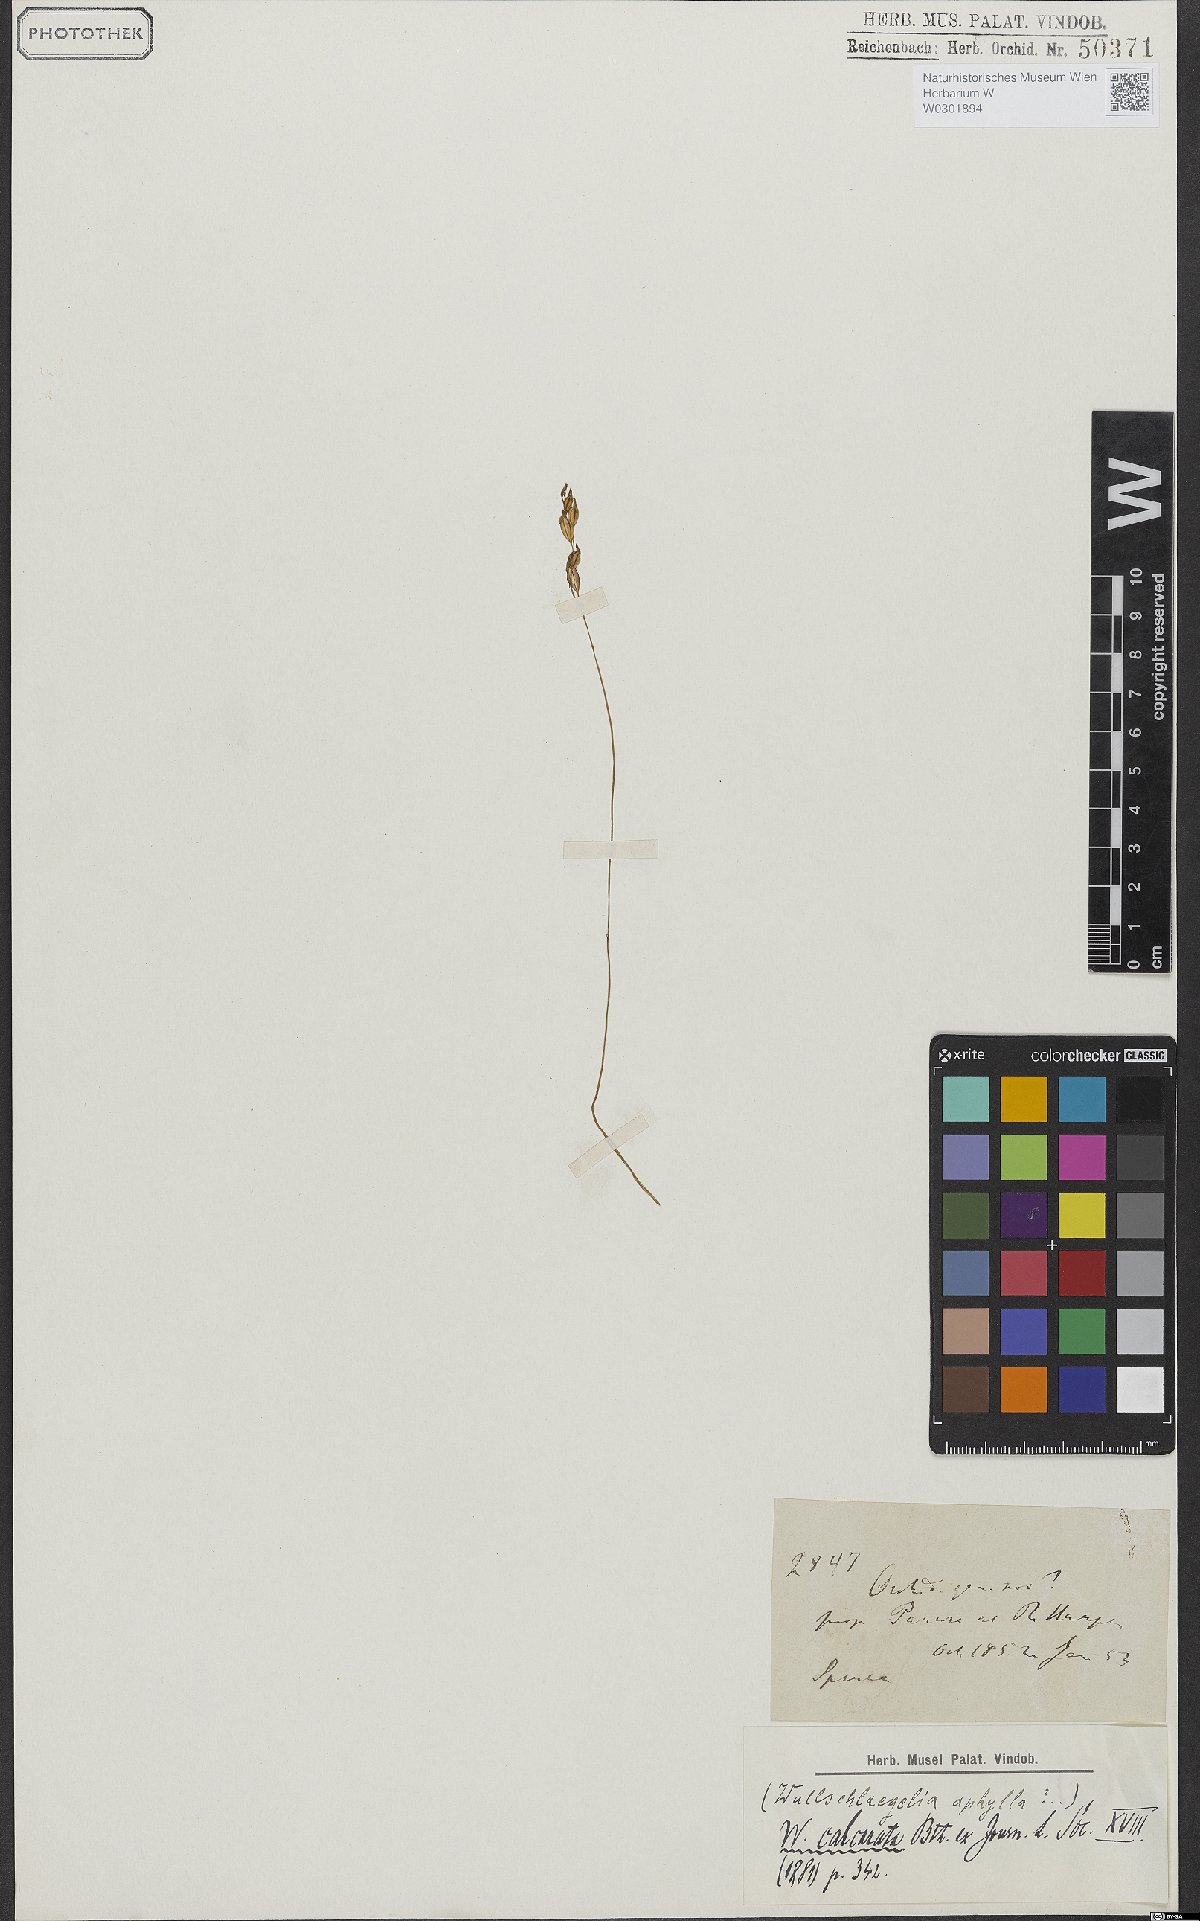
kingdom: Plantae
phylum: Tracheophyta
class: Liliopsida
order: Asparagales
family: Orchidaceae
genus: Wullschlaegelia
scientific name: Wullschlaegelia calcarata
